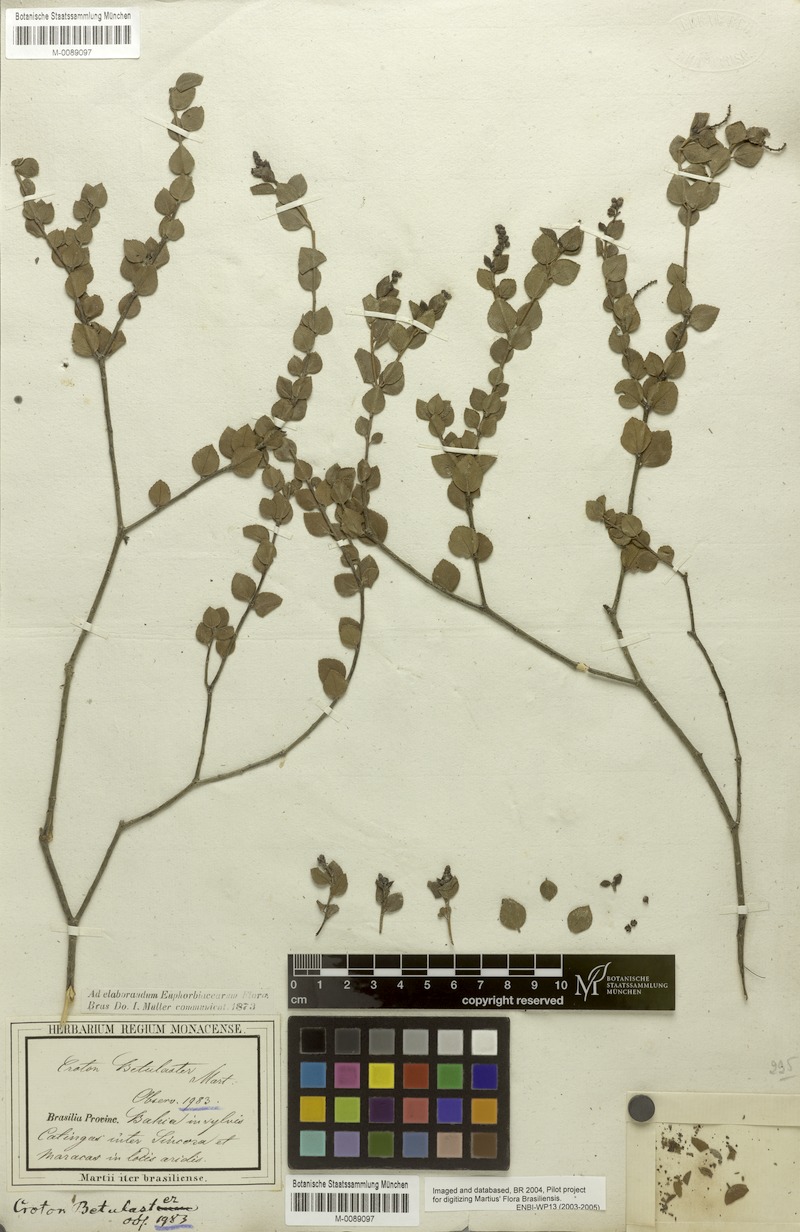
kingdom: Plantae
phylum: Tracheophyta
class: Magnoliopsida
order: Malpighiales
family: Euphorbiaceae
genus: Croton
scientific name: Croton betulaster
